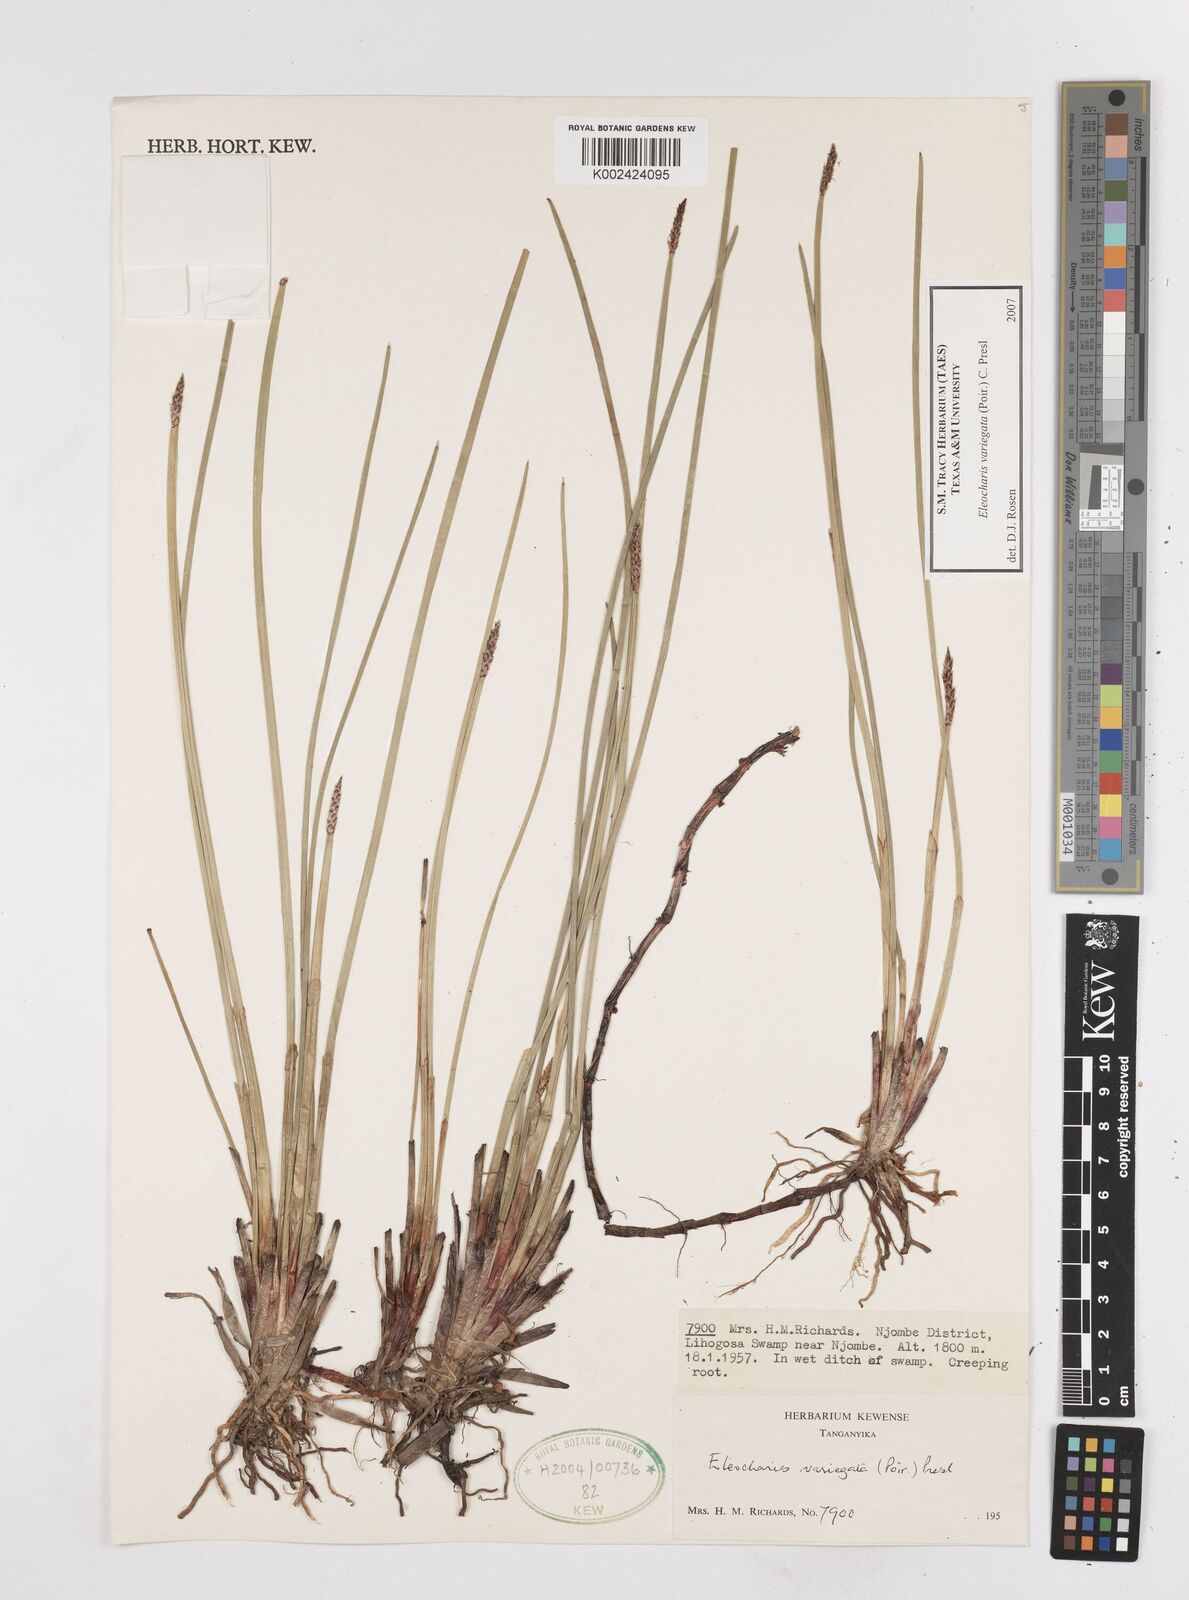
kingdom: Plantae
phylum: Tracheophyta
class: Liliopsida
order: Poales
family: Cyperaceae
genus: Eleocharis
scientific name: Eleocharis variegata
